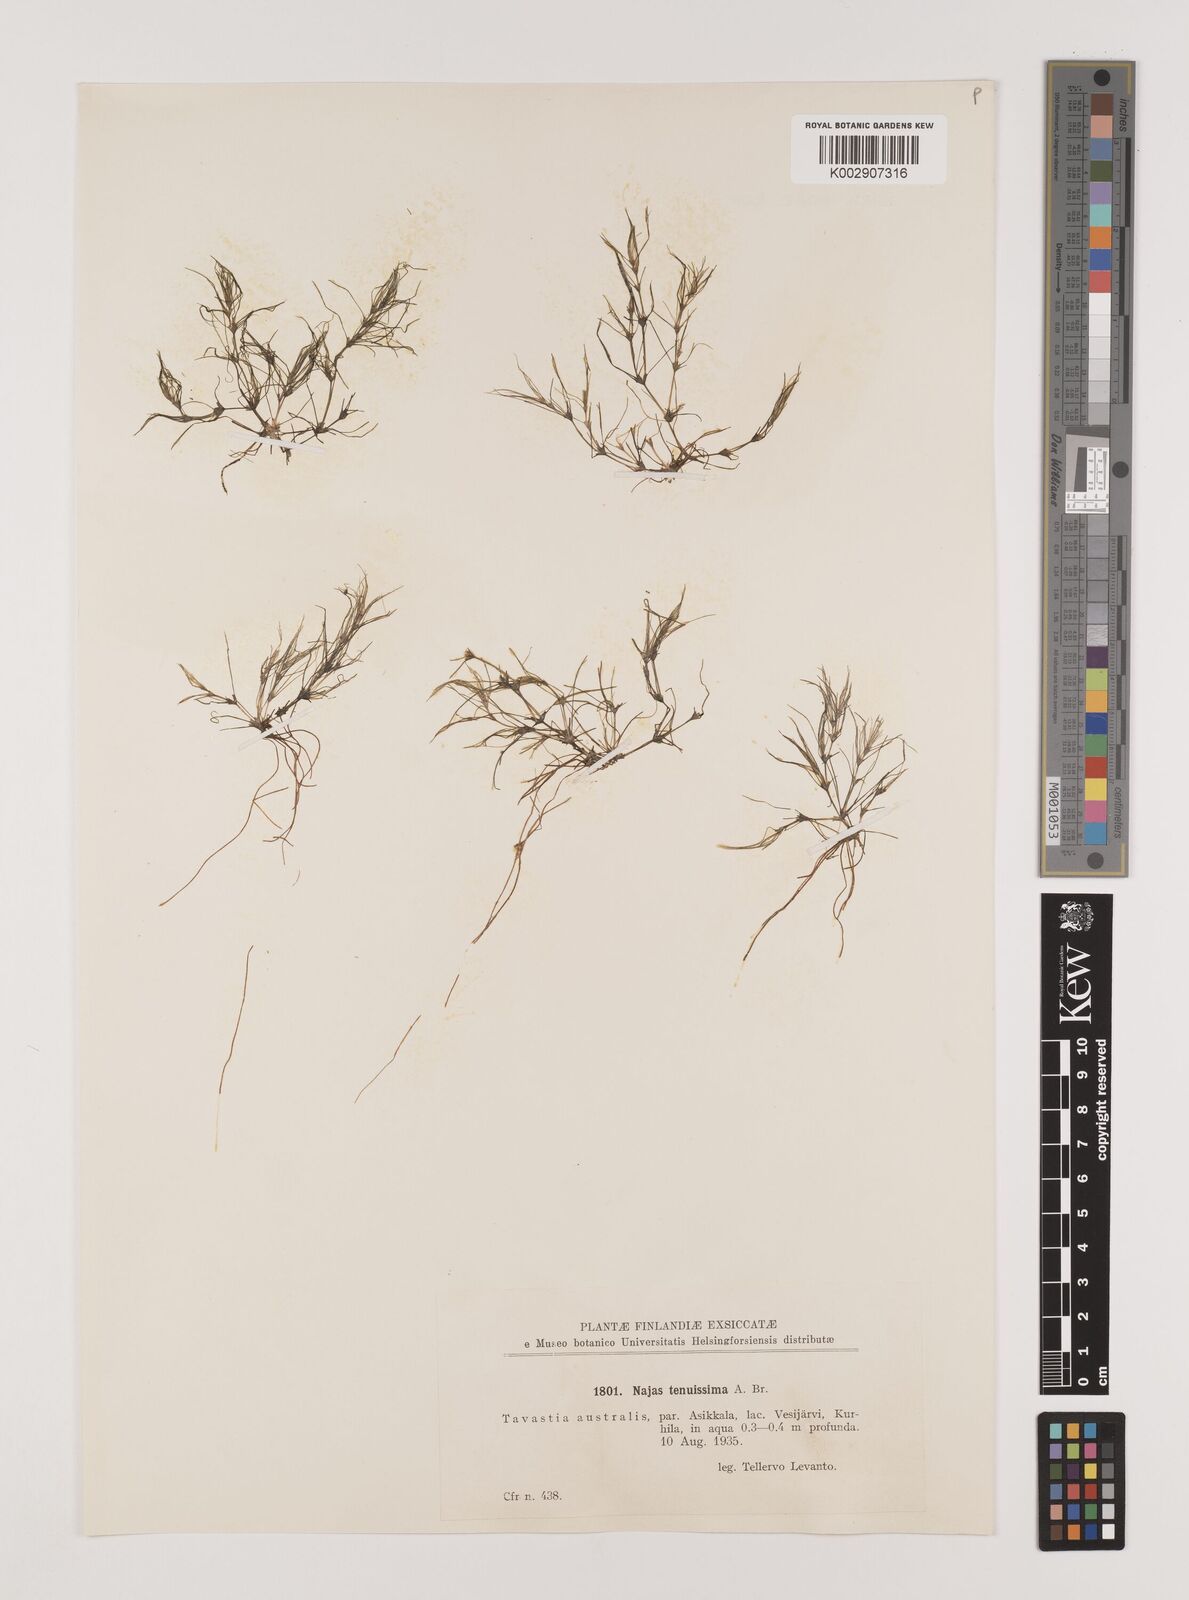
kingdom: Plantae
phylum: Tracheophyta
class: Liliopsida
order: Alismatales
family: Hydrocharitaceae
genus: Najas
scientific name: Najas tenuissima
